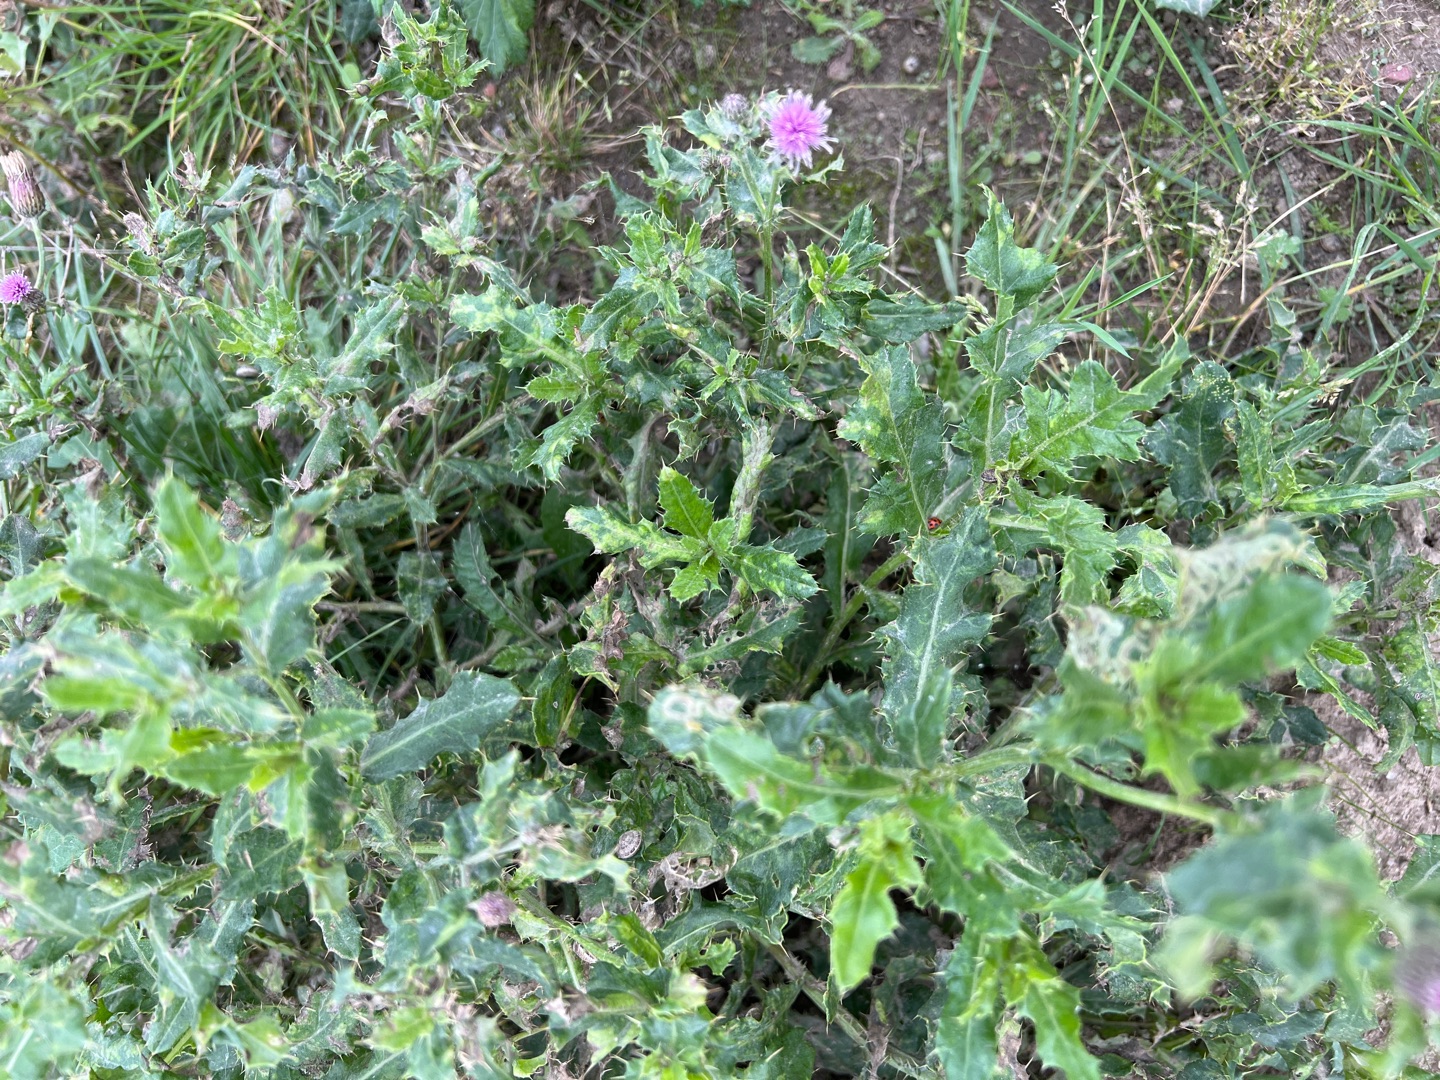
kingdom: Plantae
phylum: Tracheophyta
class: Magnoliopsida
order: Asterales
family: Asteraceae
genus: Cirsium
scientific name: Cirsium arvense
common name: Ager-tidsel
